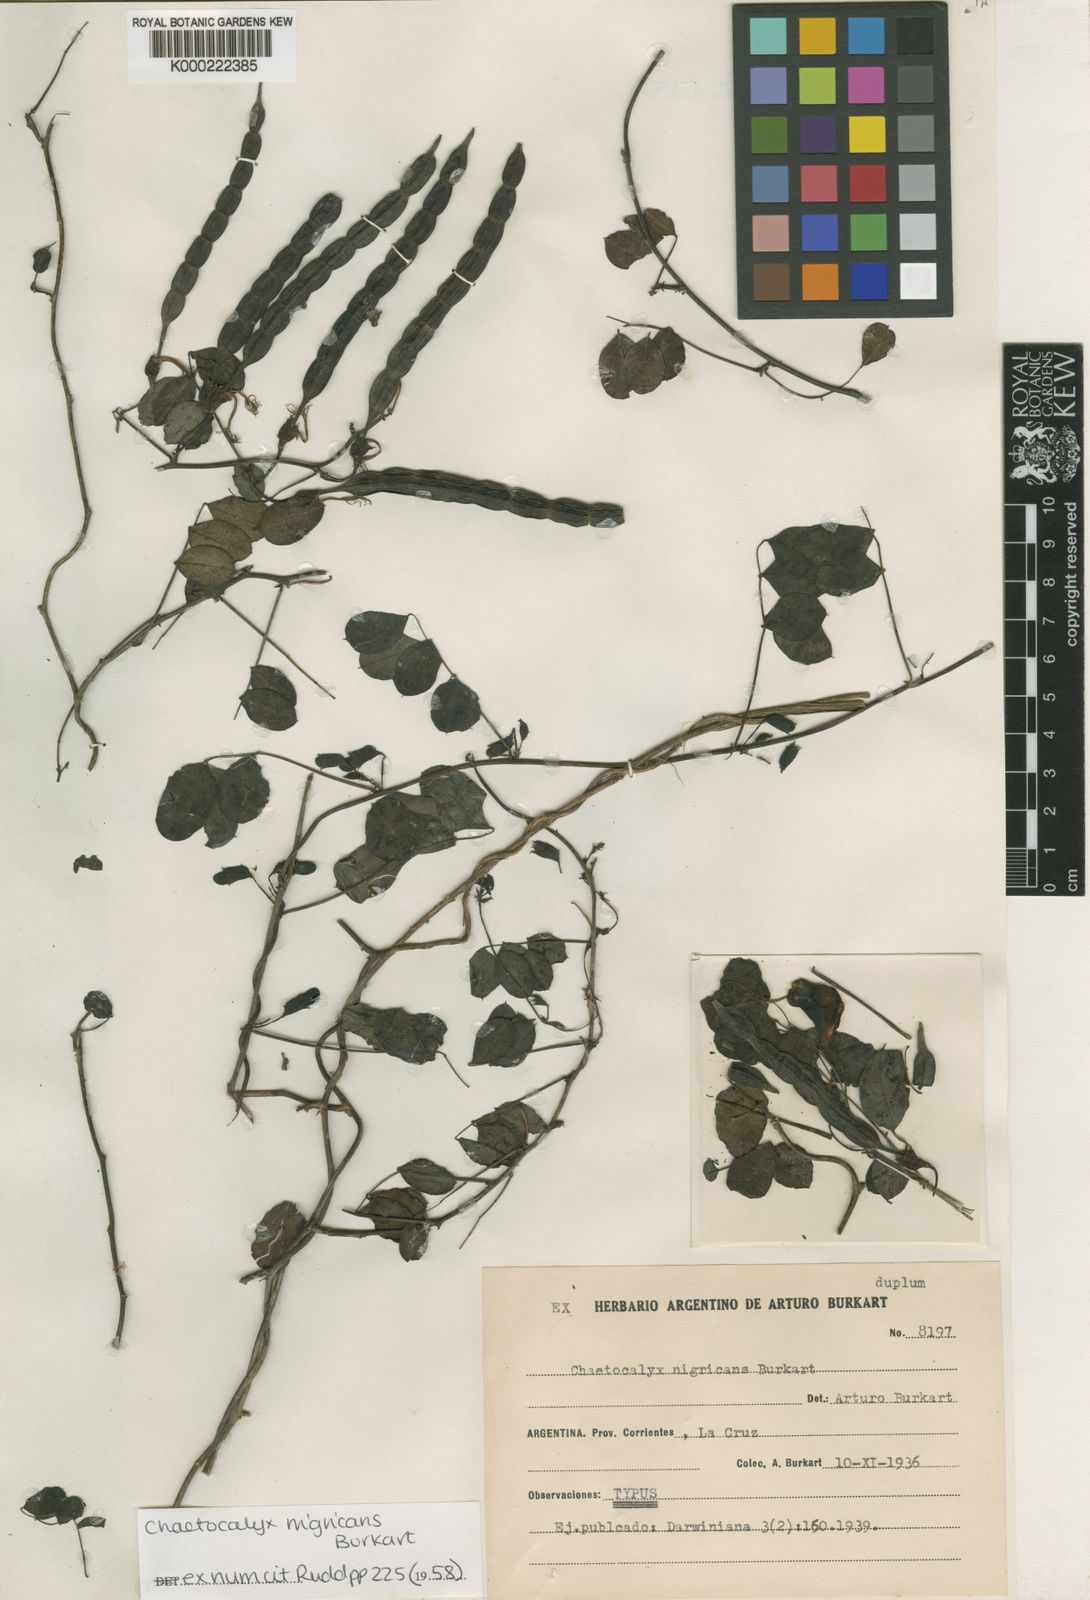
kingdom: Plantae
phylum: Tracheophyta
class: Magnoliopsida
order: Fabales
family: Fabaceae
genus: Nissolia
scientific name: Nissolia nigricans
